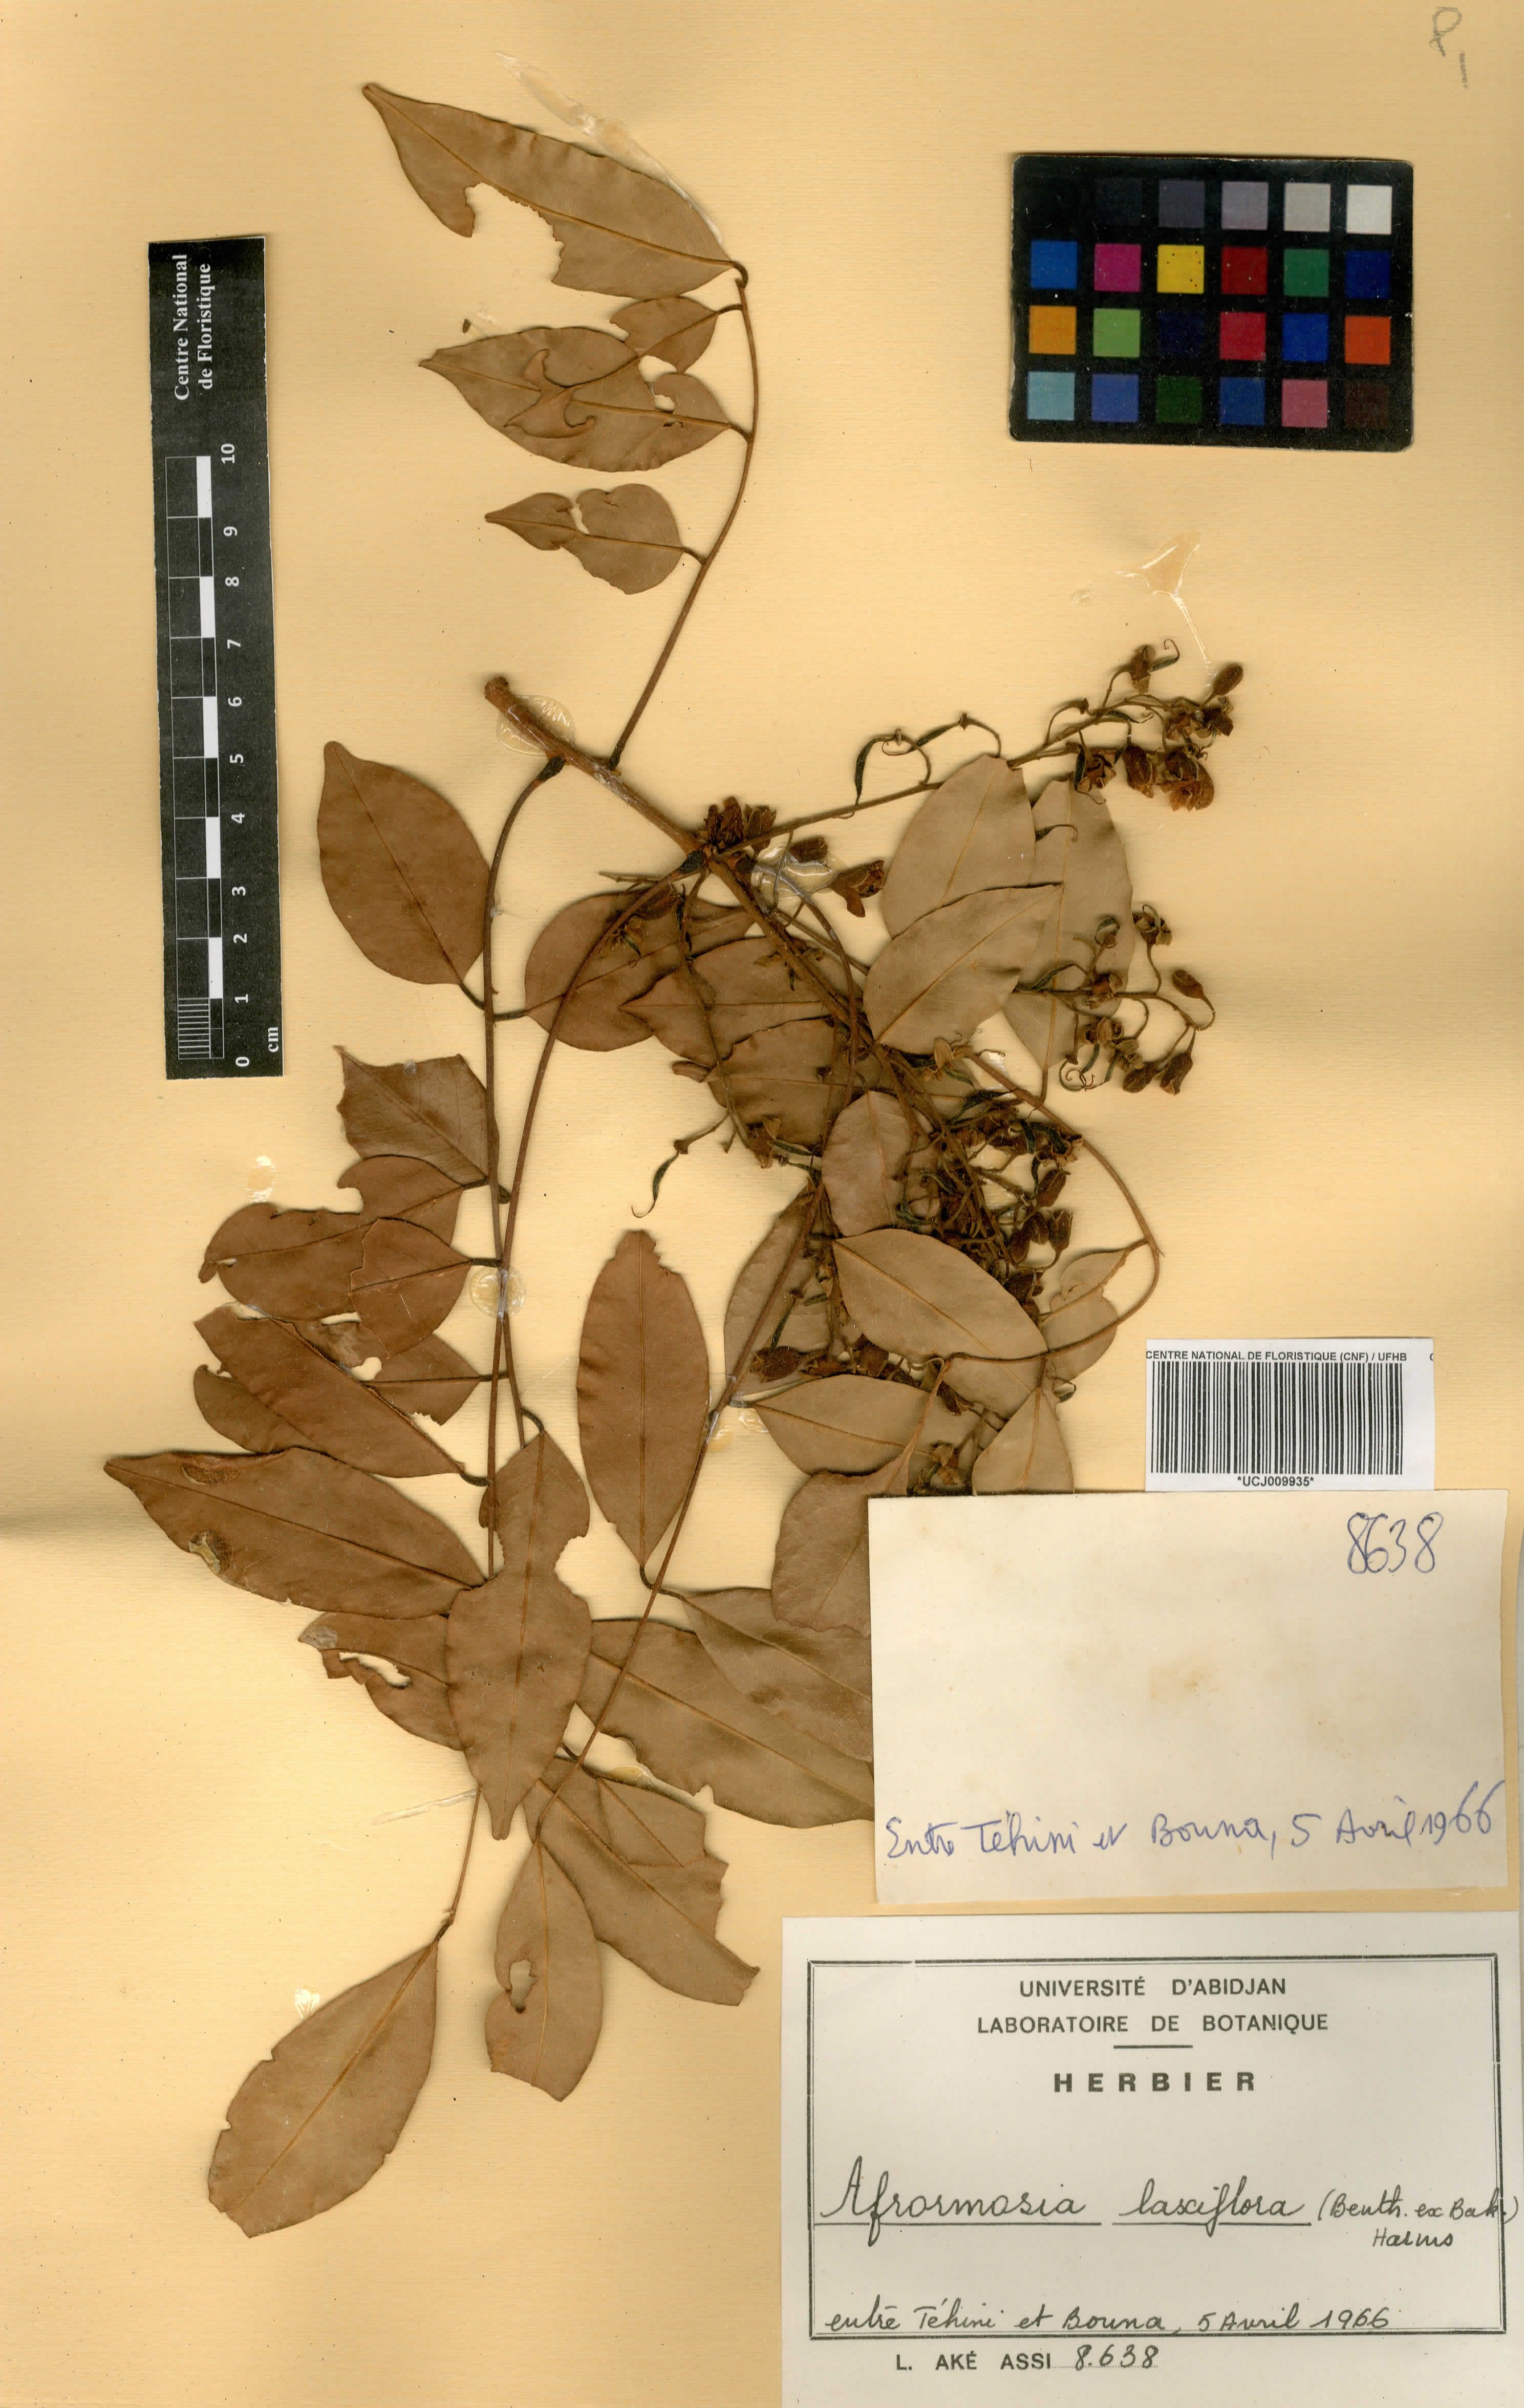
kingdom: Plantae
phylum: Tracheophyta
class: Magnoliopsida
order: Fabales
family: Fabaceae
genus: Pericopsis
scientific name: Pericopsis laxiflora
